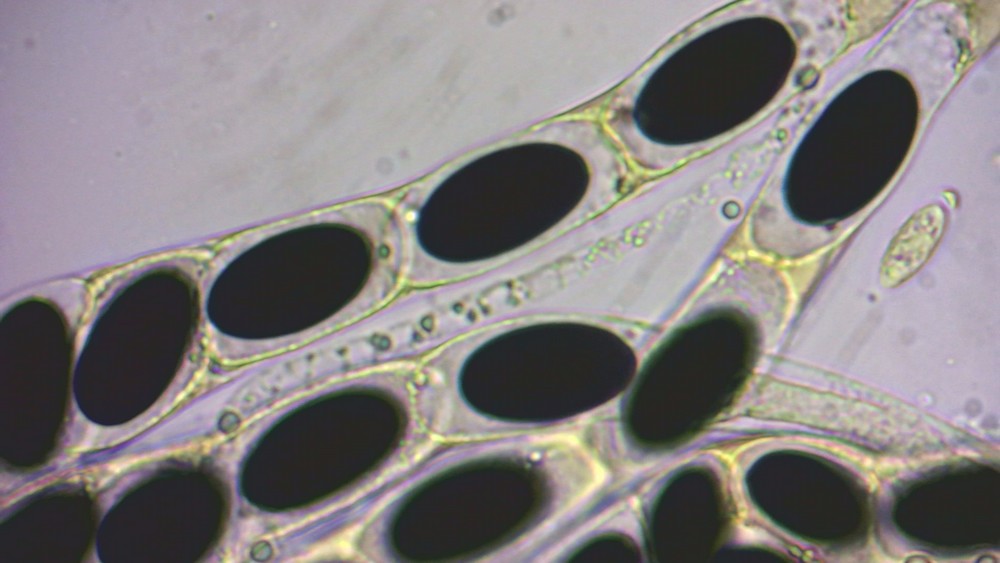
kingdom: Fungi
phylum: Ascomycota
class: Sordariomycetes
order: Xylariales
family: Xylariaceae
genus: Hypocopra
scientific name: Hypocopra brefeldii
